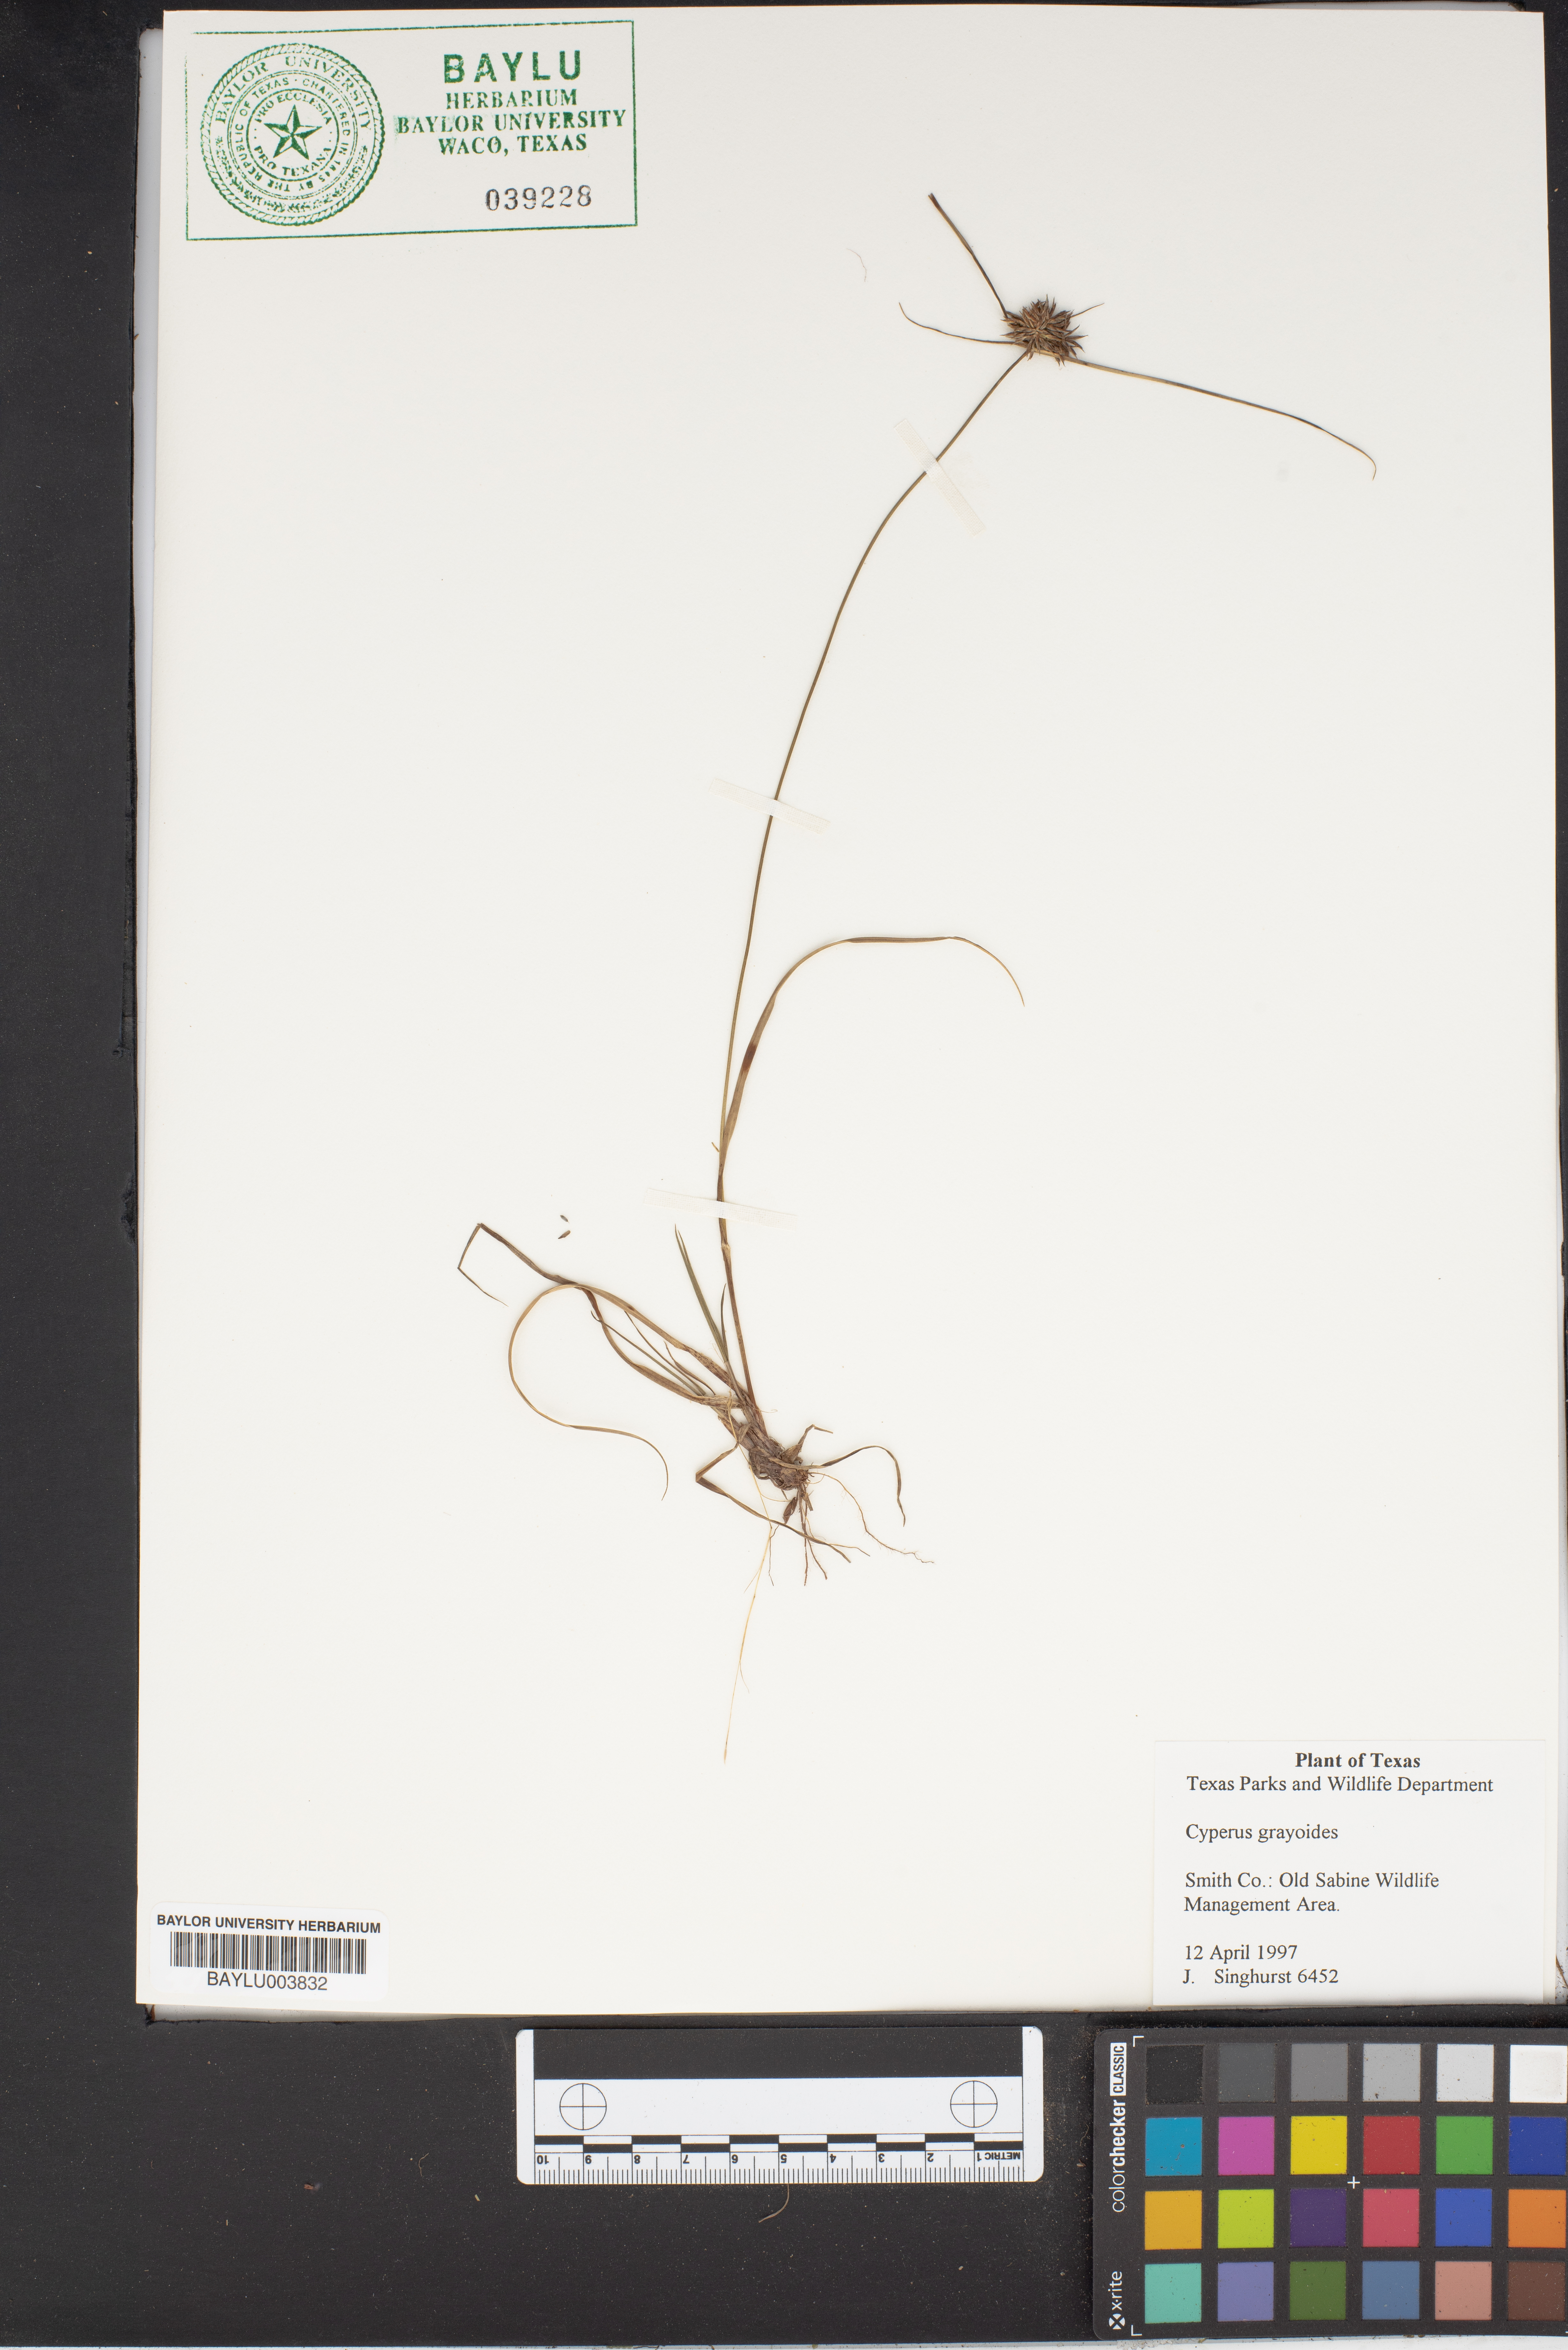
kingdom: Plantae
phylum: Tracheophyta
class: Liliopsida
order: Poales
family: Cyperaceae
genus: Cyperus
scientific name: Cyperus grayioides
